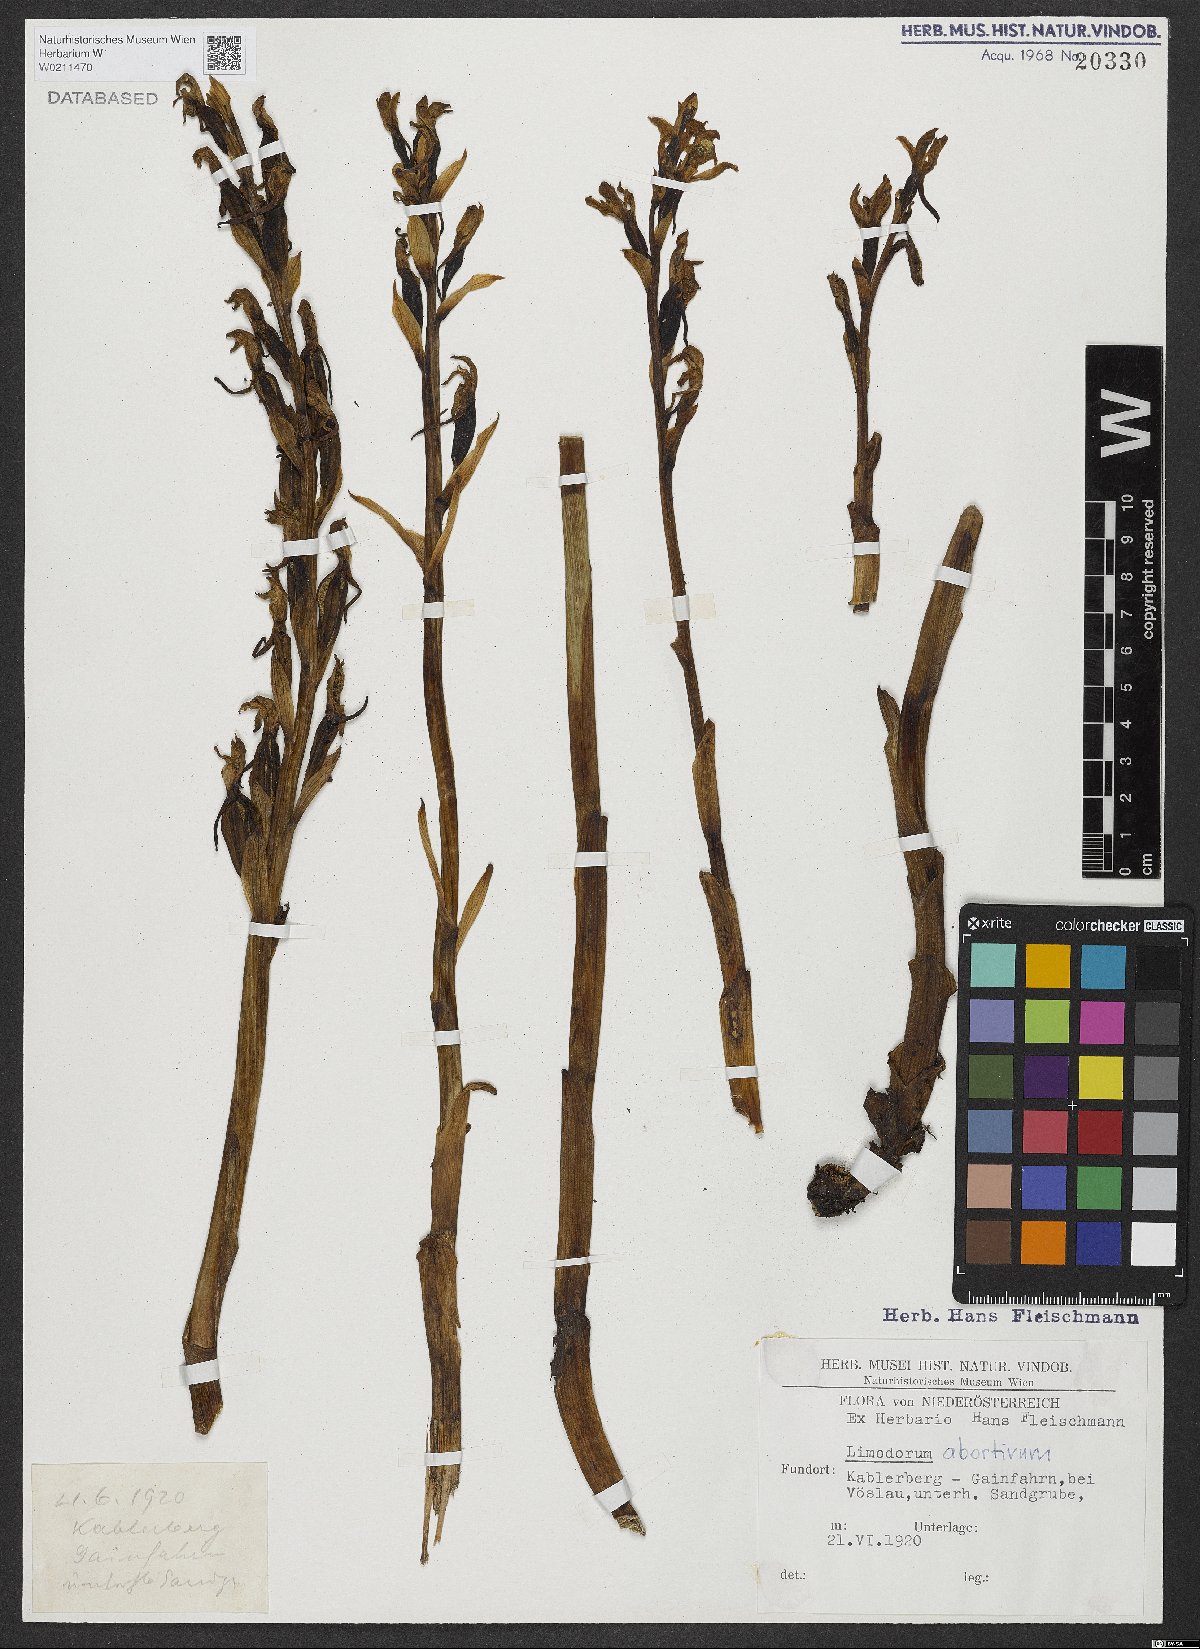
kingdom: Plantae
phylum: Tracheophyta
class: Liliopsida
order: Asparagales
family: Orchidaceae
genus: Limodorum
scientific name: Limodorum abortivum
